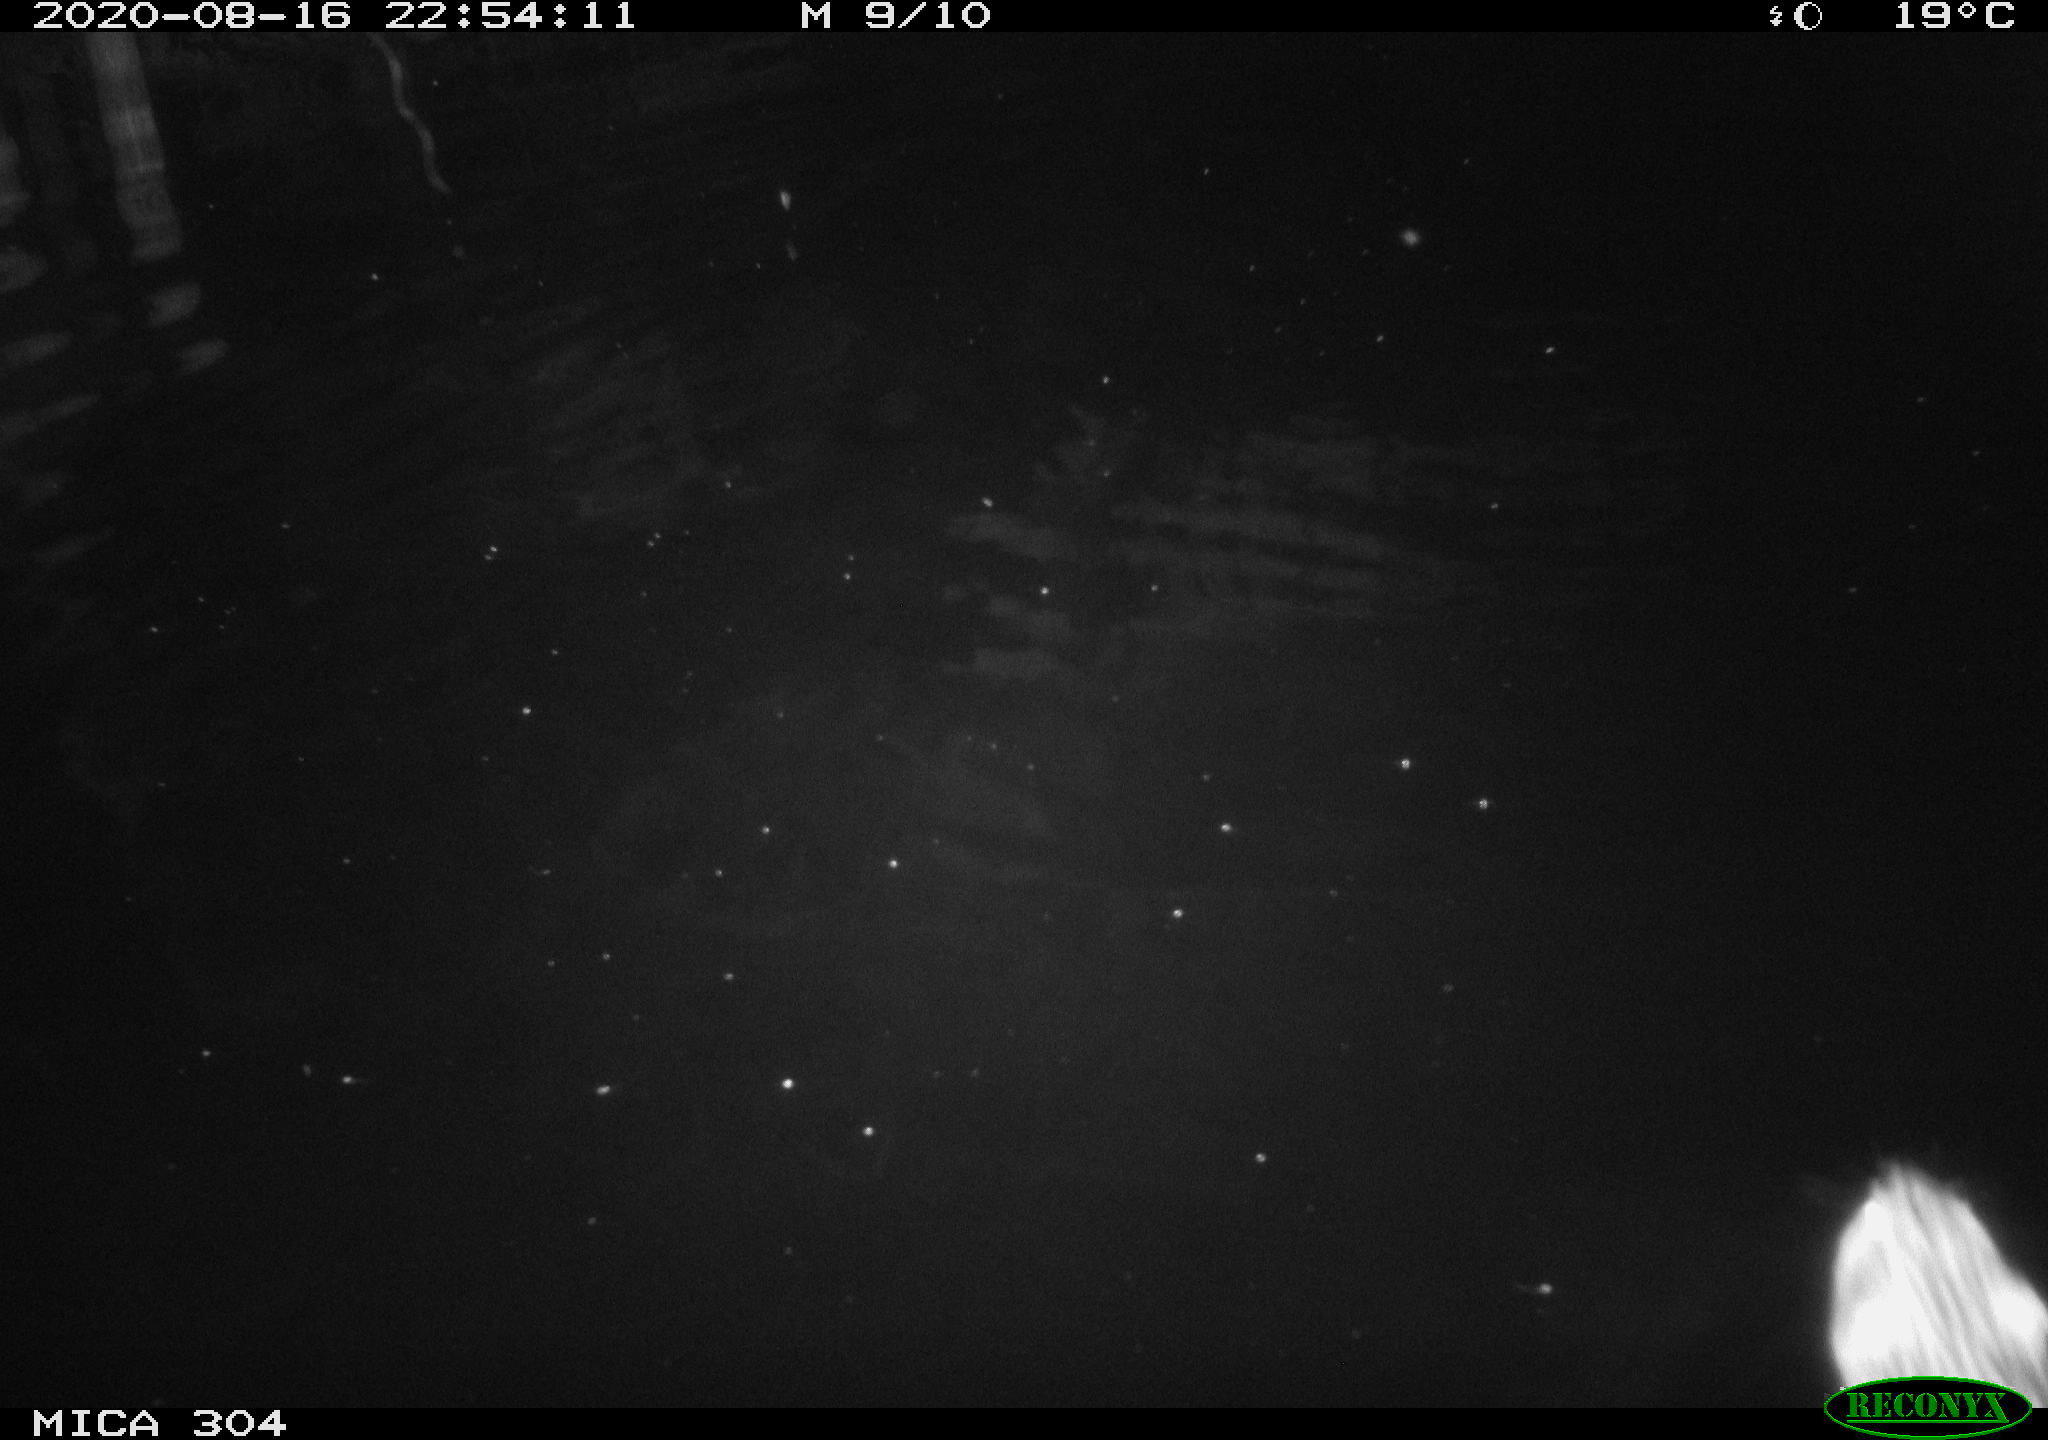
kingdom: Animalia
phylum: Chordata
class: Mammalia
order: Rodentia
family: Cricetidae
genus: Ondatra
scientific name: Ondatra zibethicus
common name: Muskrat
